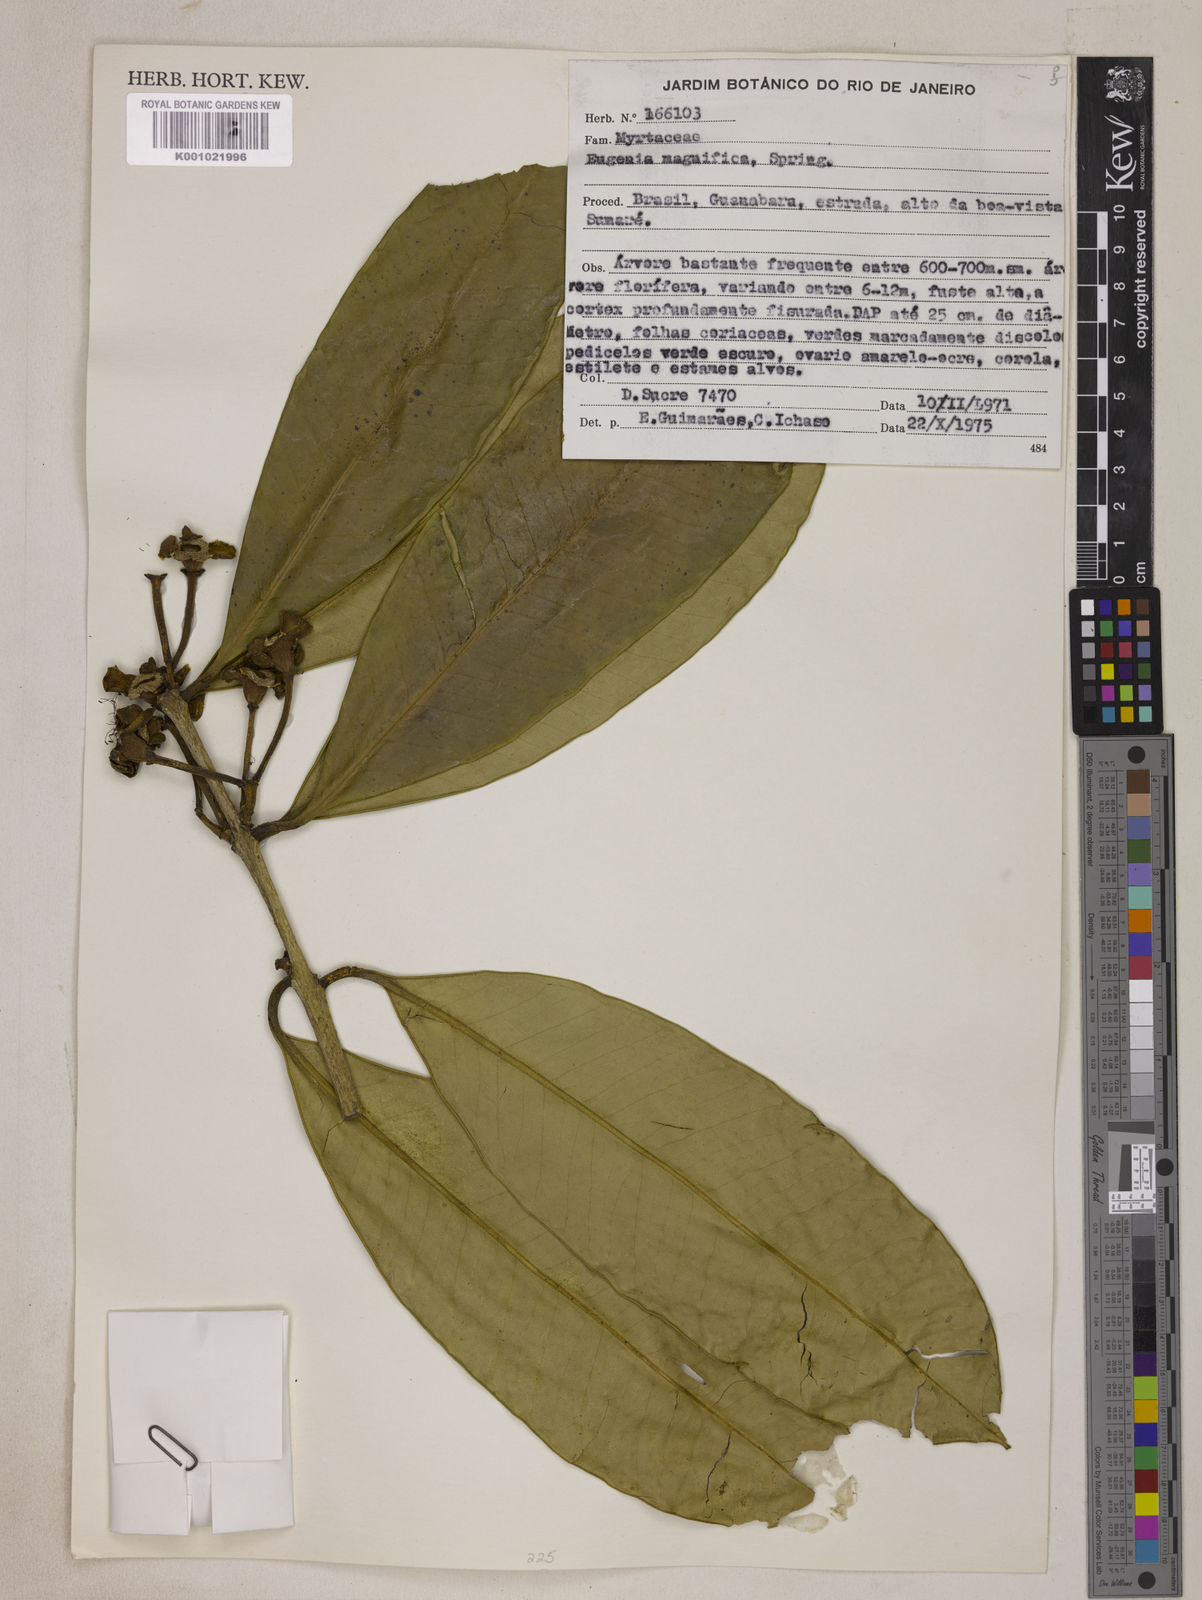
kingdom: Plantae
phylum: Tracheophyta
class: Magnoliopsida
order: Myrtales
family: Myrtaceae
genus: Eugenia
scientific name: Eugenia
